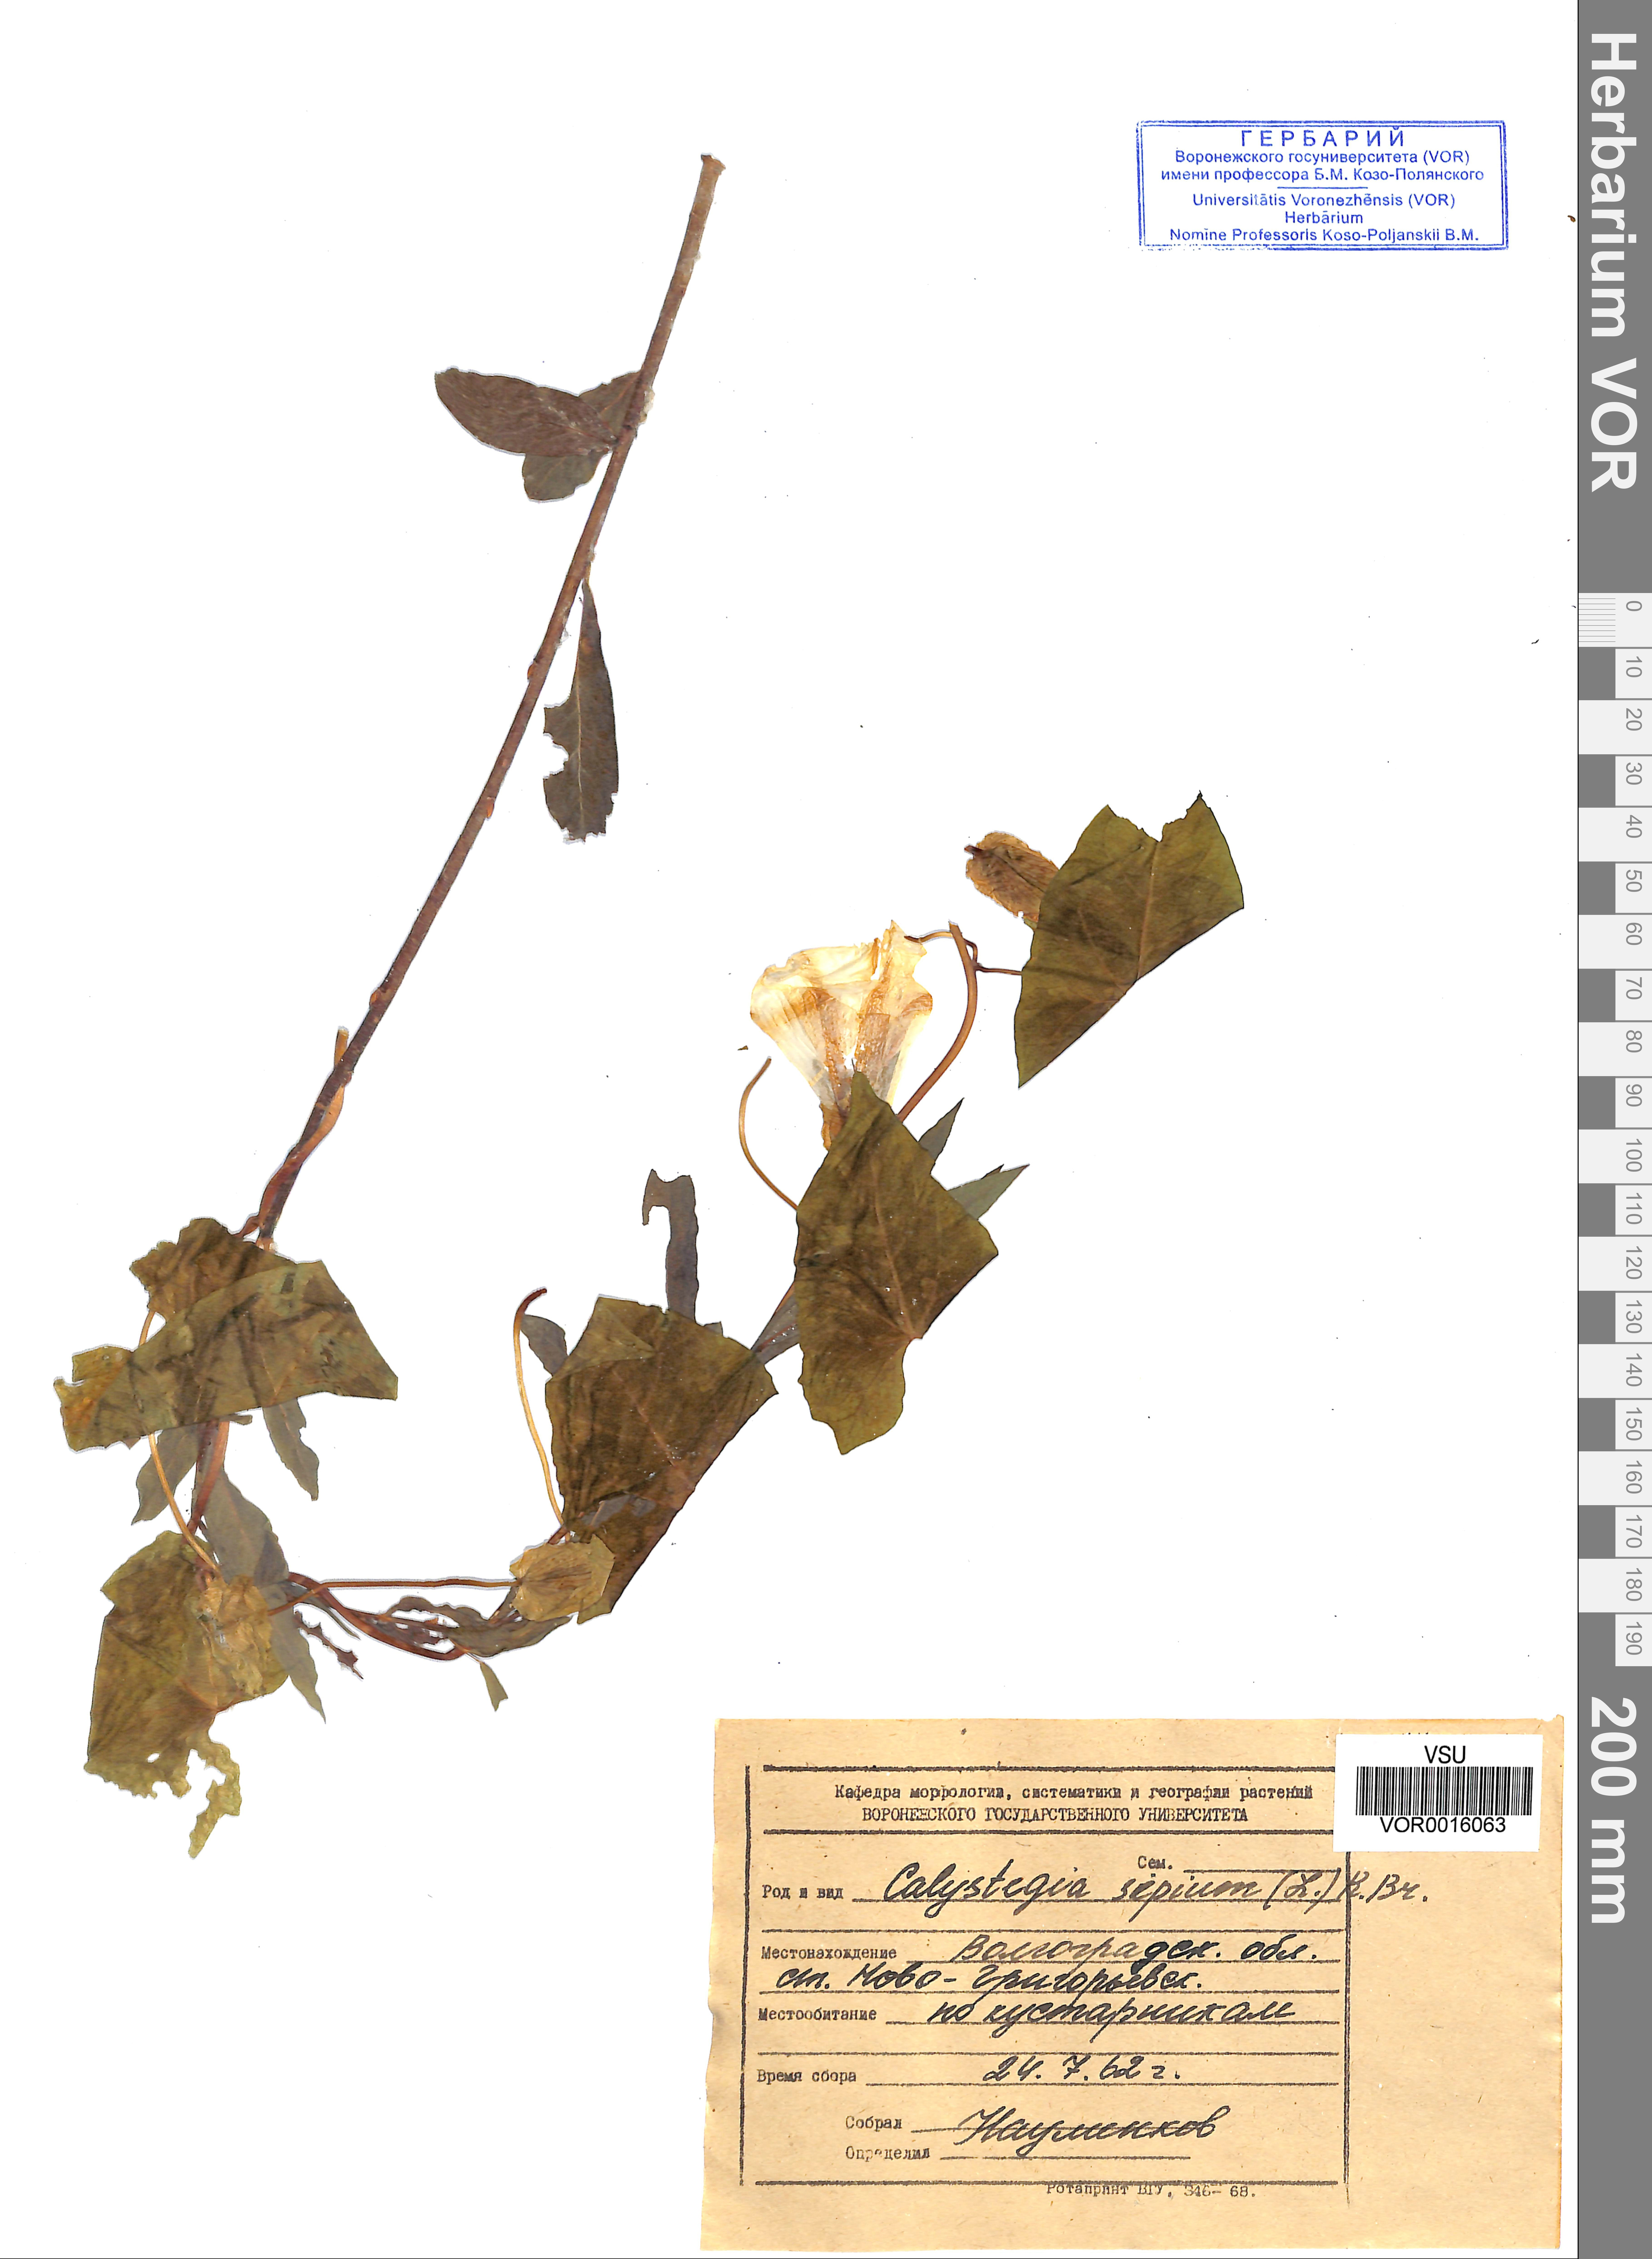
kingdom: Plantae
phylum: Tracheophyta
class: Magnoliopsida
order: Solanales
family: Convolvulaceae
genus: Calystegia
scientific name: Calystegia sepium
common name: Hedge bindweed
